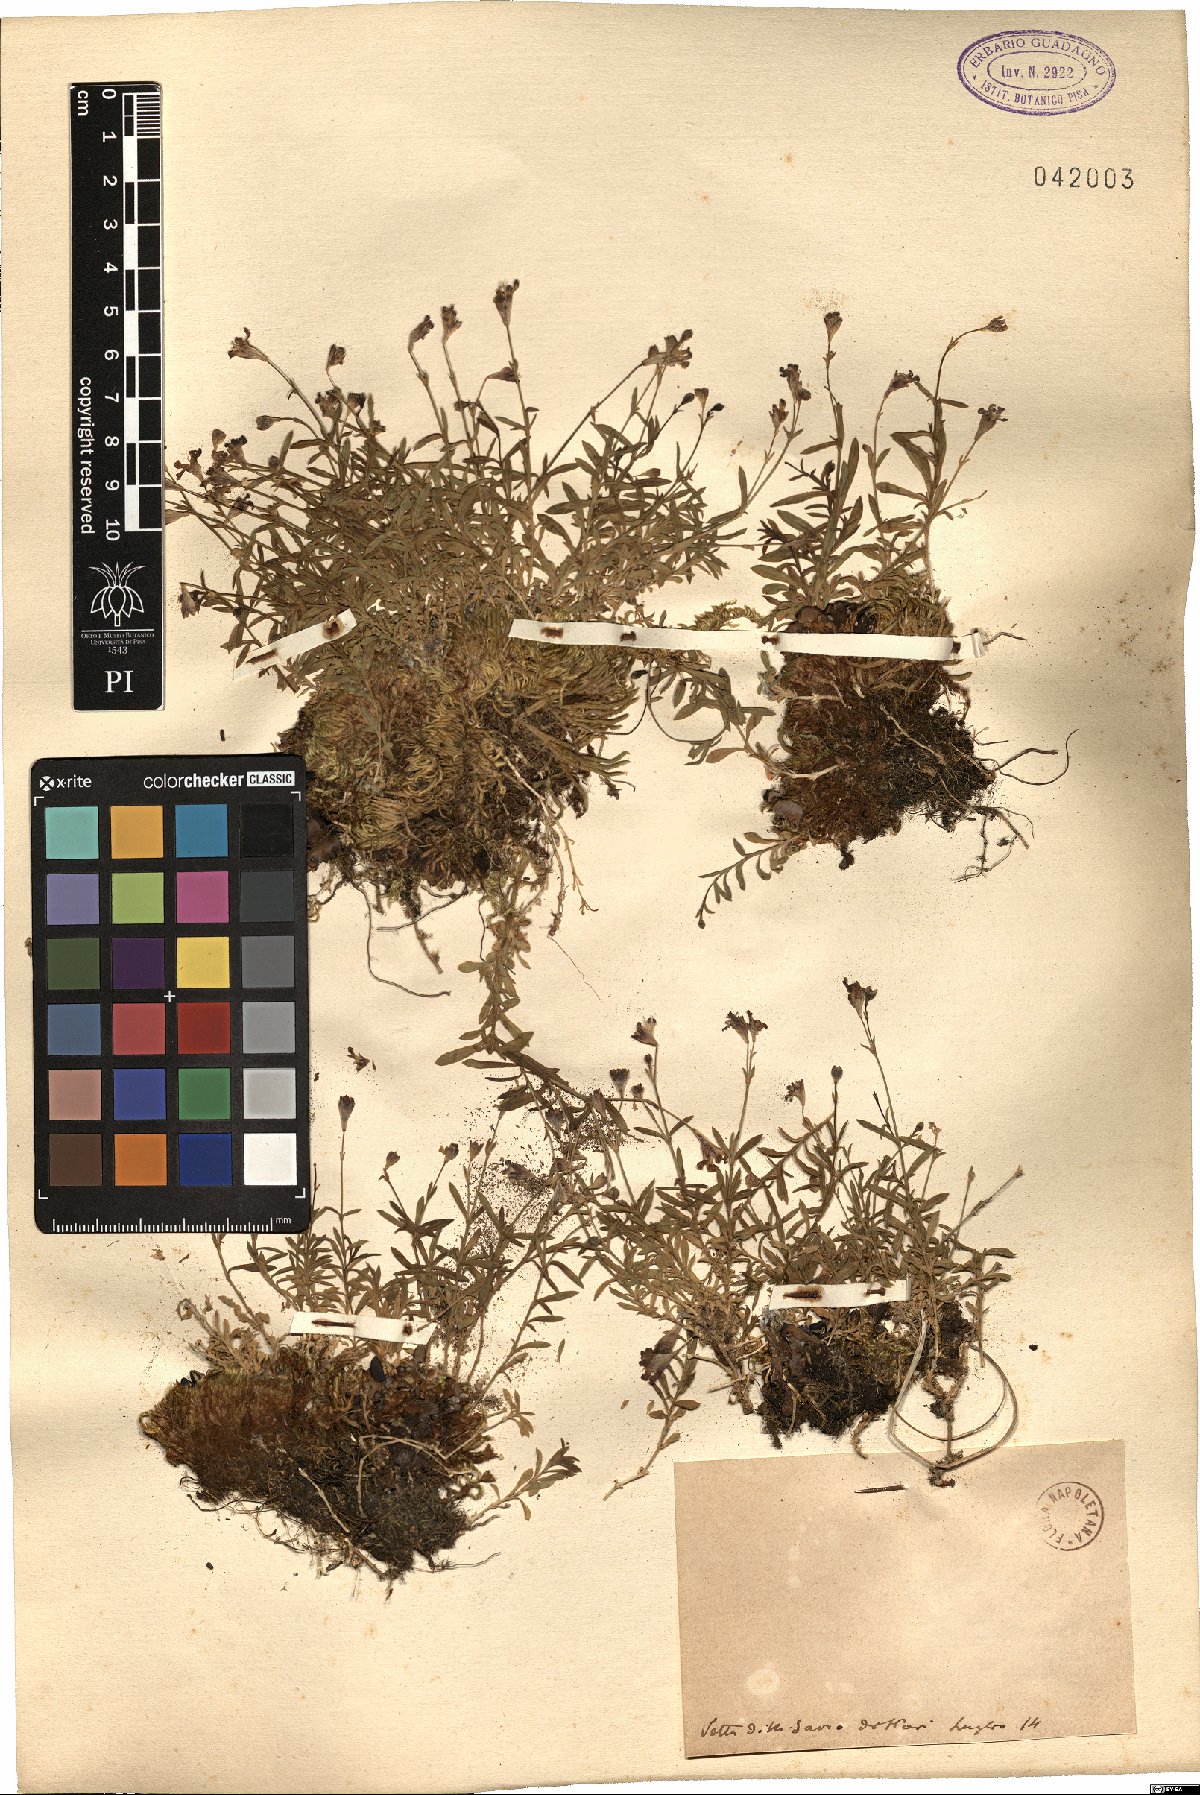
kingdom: Plantae
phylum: Tracheophyta
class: Magnoliopsida
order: Caryophyllales
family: Caryophyllaceae
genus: Silene
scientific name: Silene
